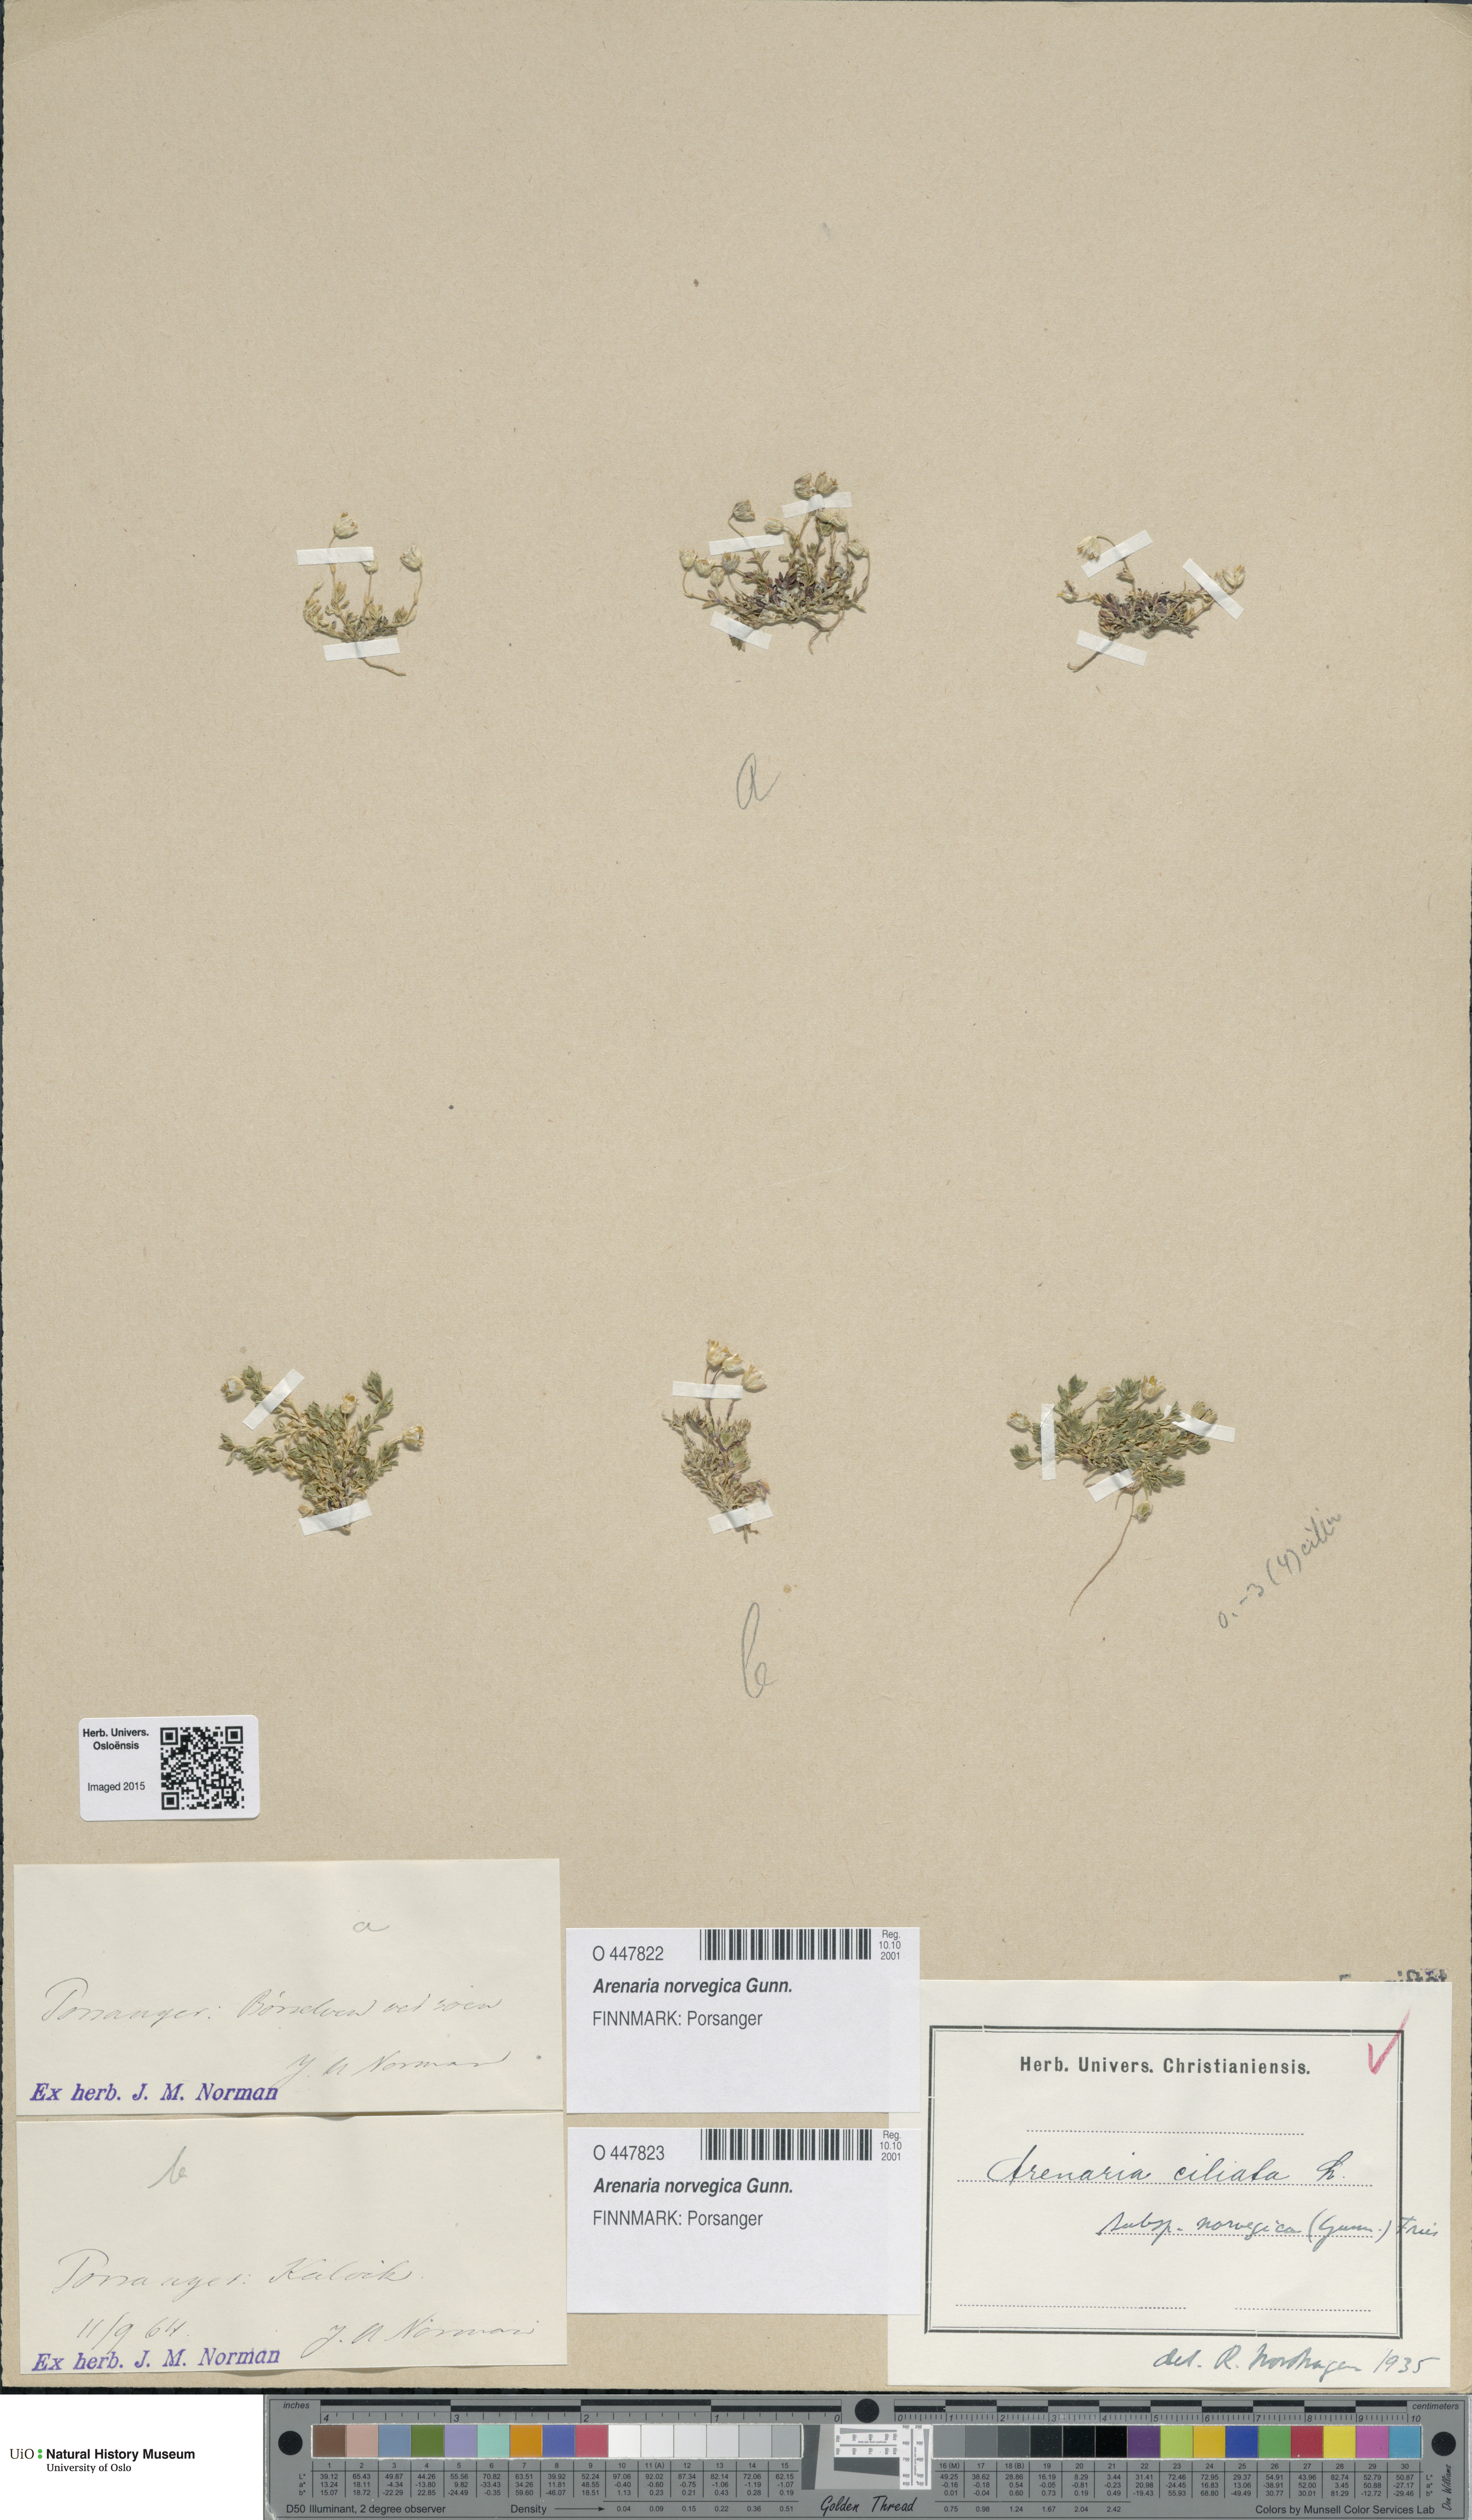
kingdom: Plantae
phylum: Tracheophyta
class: Magnoliopsida
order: Caryophyllales
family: Caryophyllaceae
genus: Arenaria
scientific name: Arenaria norvegica
